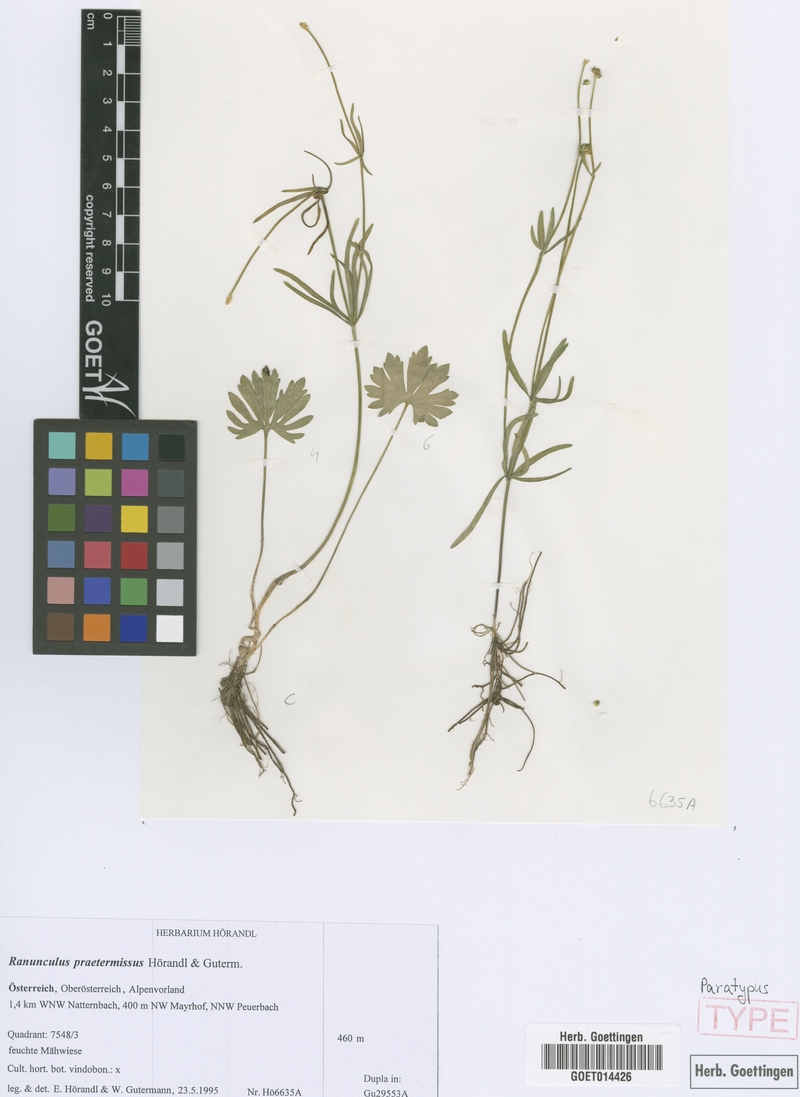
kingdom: Plantae
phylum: Tracheophyta
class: Magnoliopsida
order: Ranunculales
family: Ranunculaceae
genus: Ranunculus
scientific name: Ranunculus praetermissus
